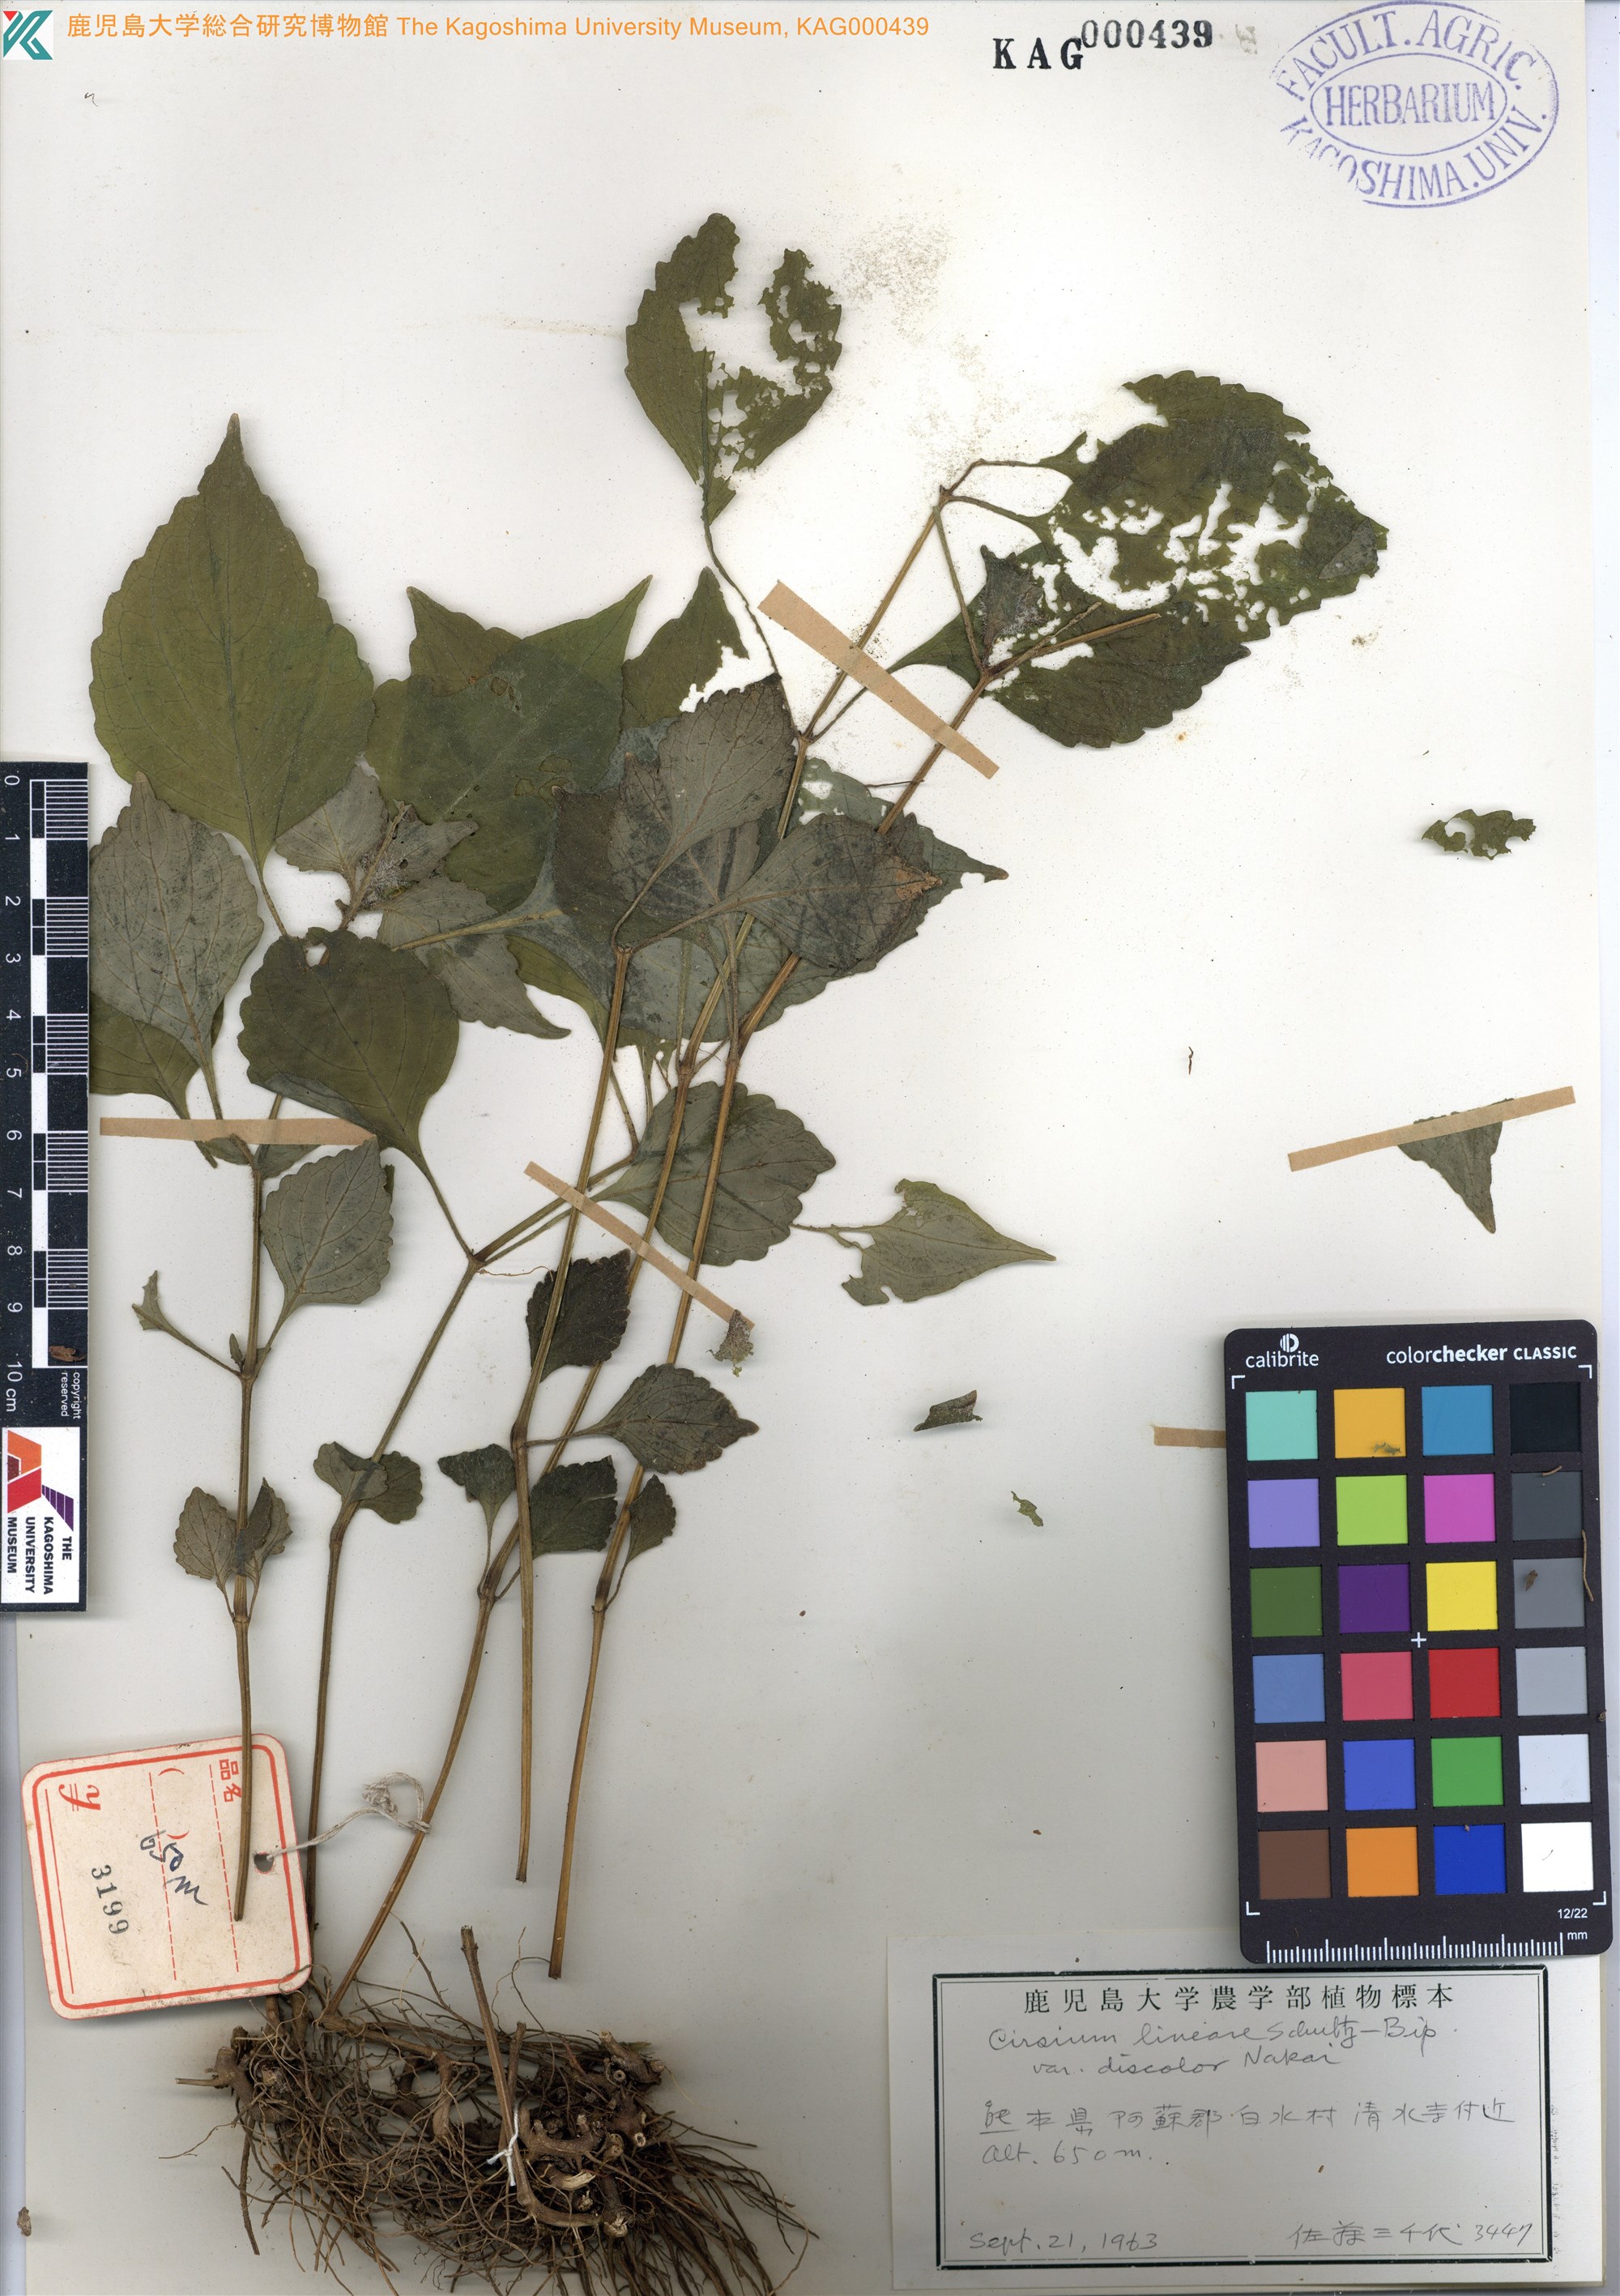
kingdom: Plantae
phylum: Tracheophyta
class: Magnoliopsida
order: Lamiales
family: Acanthaceae
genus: Strobilanthes
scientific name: Strobilanthes oligantha
